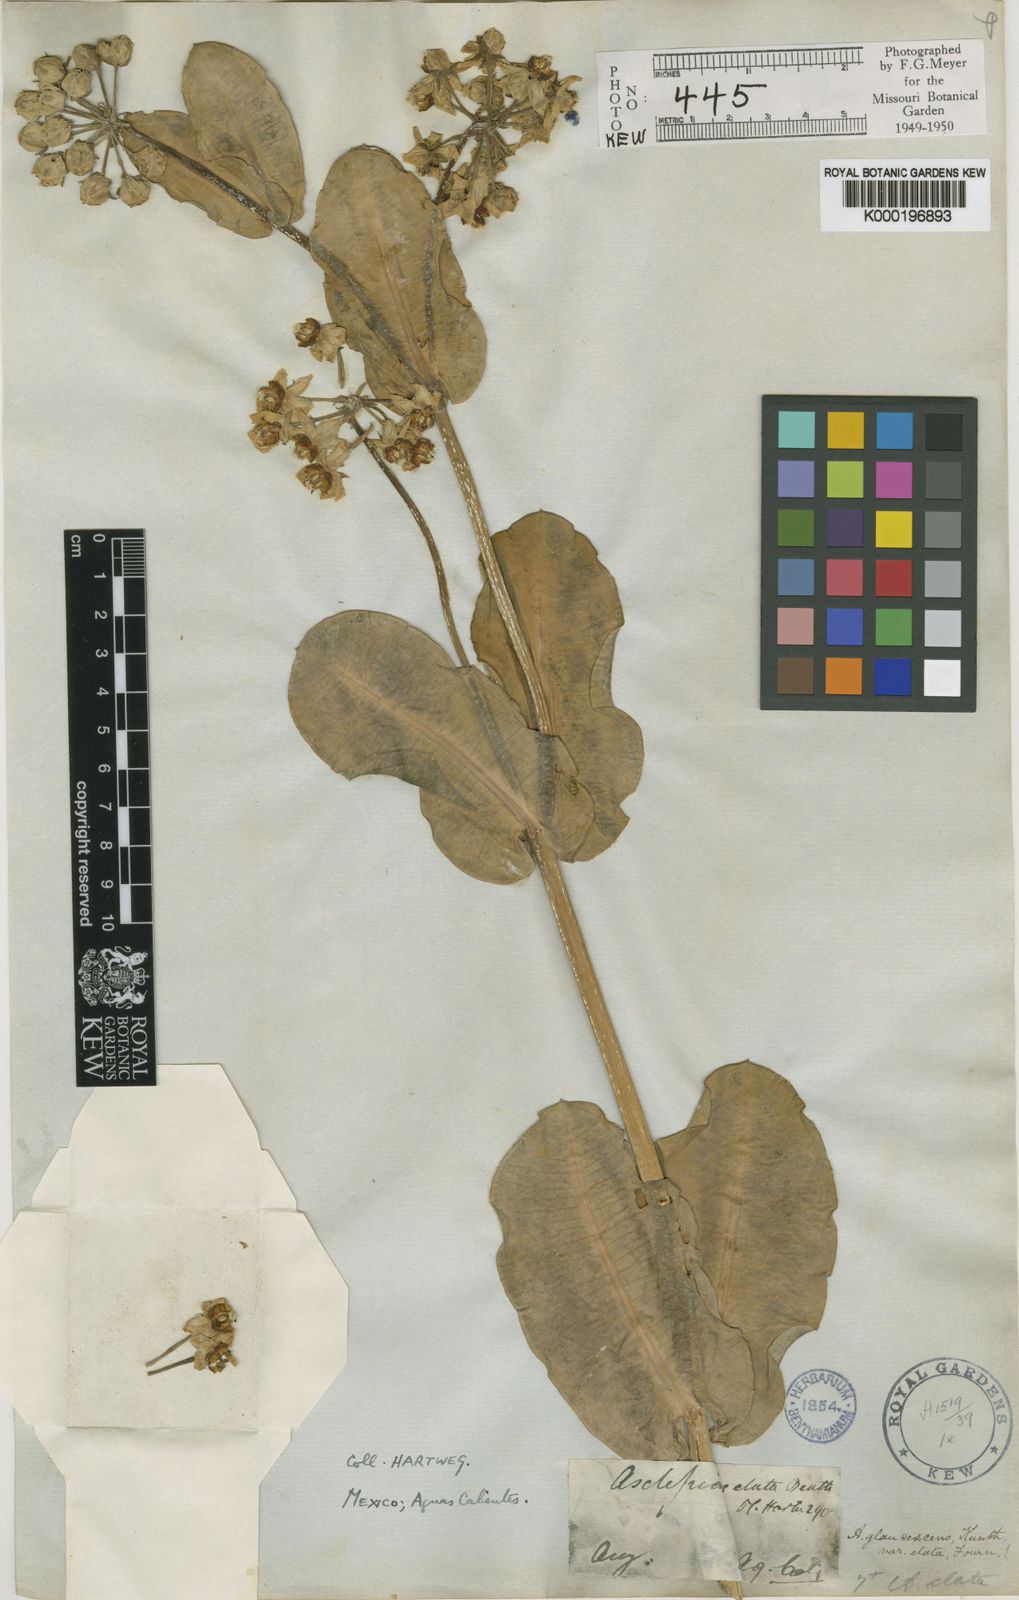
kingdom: Plantae
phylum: Tracheophyta
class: Magnoliopsida
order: Gentianales
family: Apocynaceae
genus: Asclepias
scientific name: Asclepias elata
